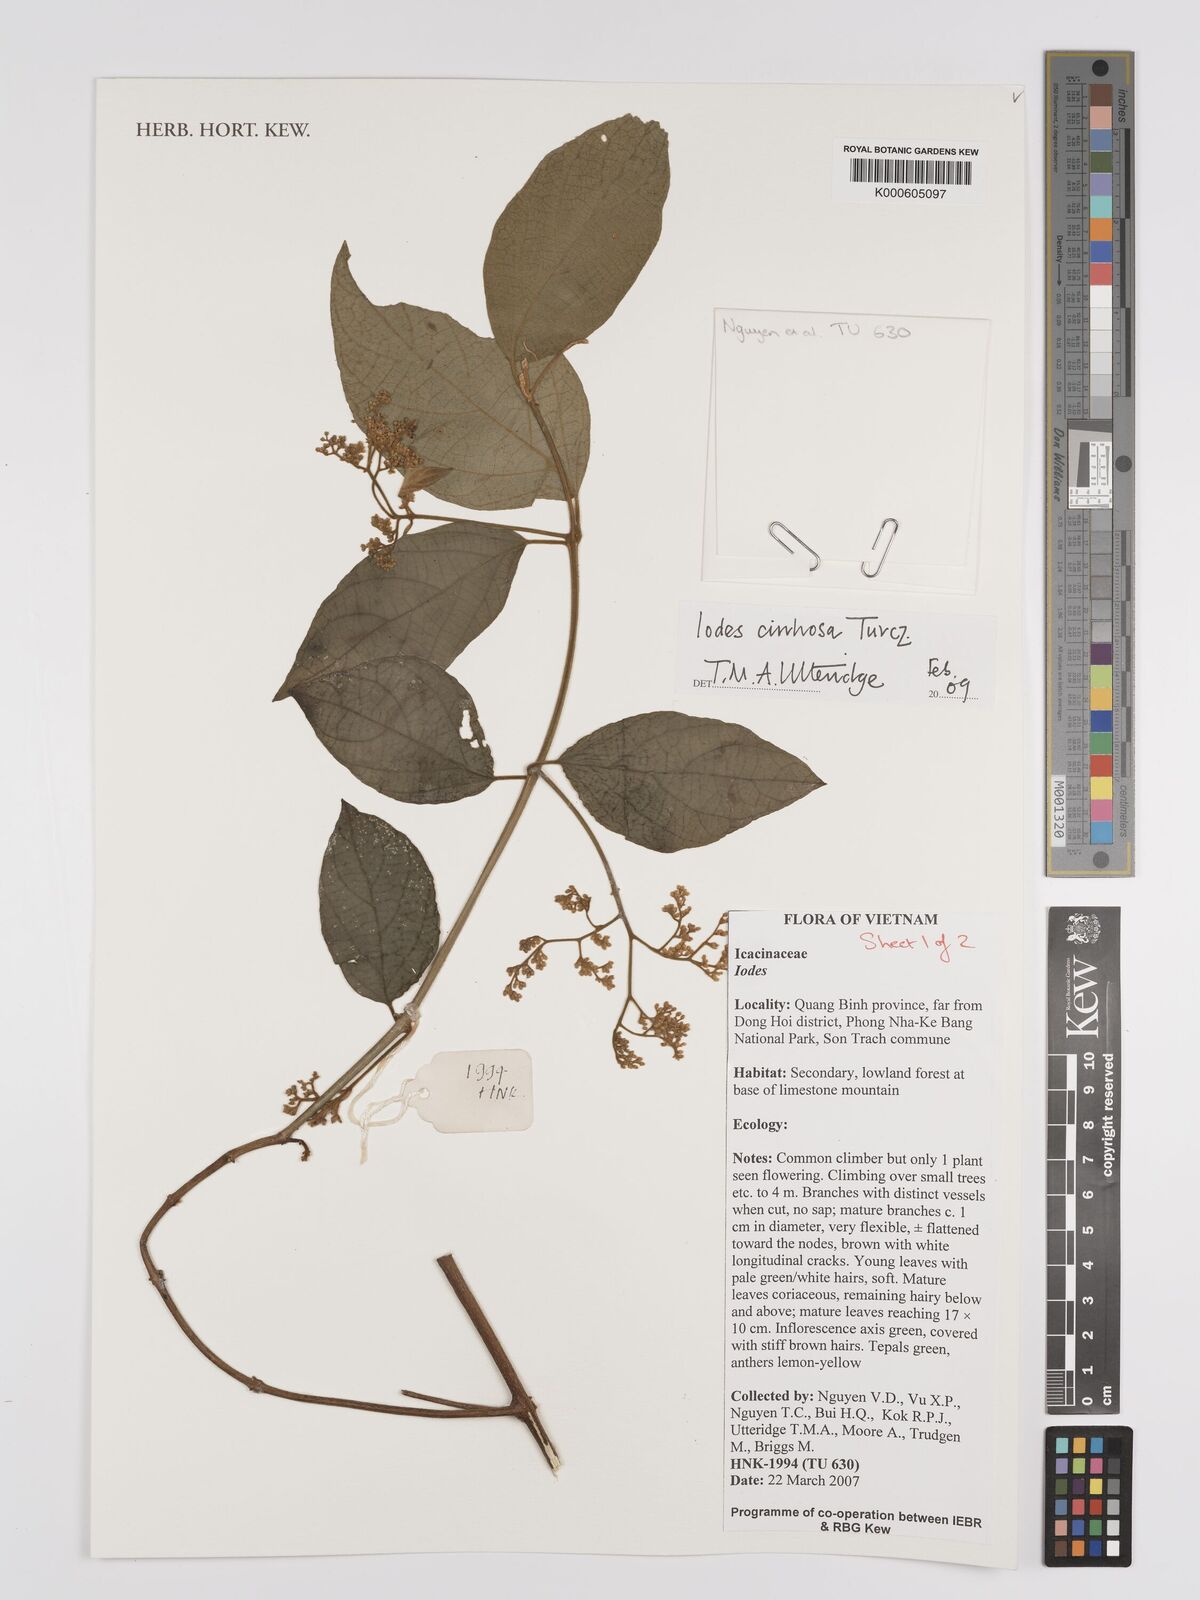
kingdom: Plantae
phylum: Tracheophyta
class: Magnoliopsida
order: Icacinales
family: Icacinaceae
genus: Iodes
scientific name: Iodes cirrhosa
